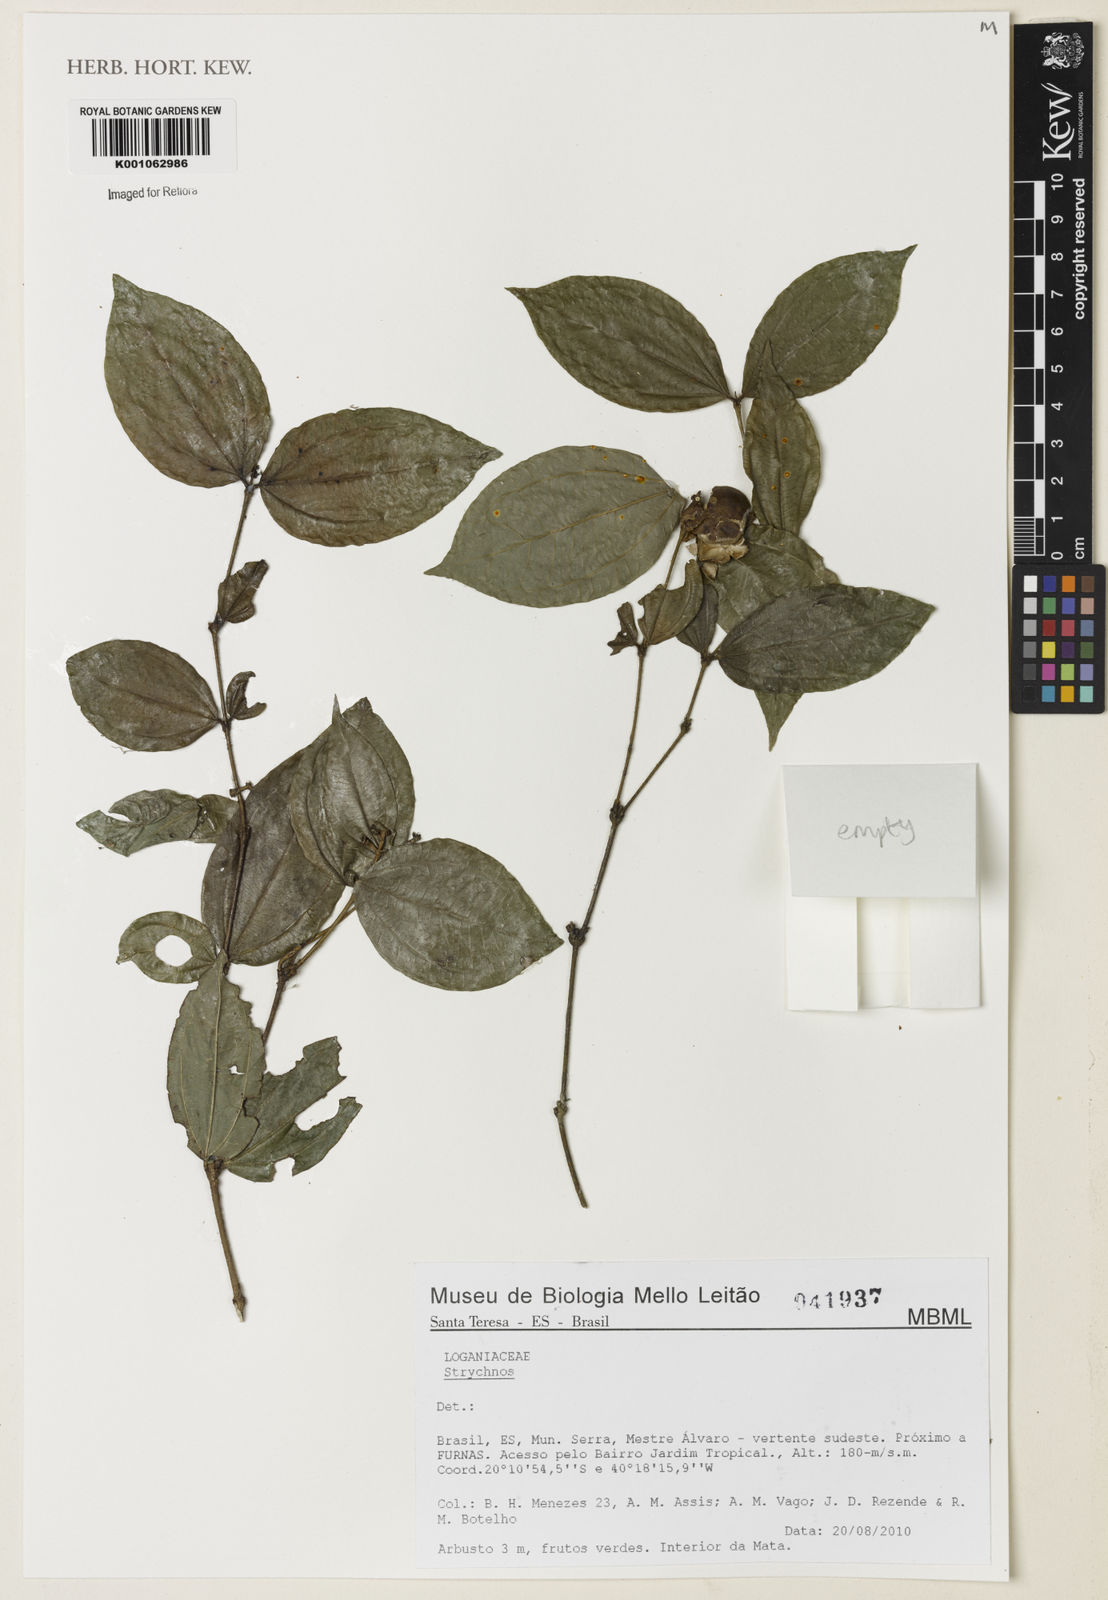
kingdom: Plantae
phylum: Tracheophyta
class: Magnoliopsida
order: Gentianales
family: Loganiaceae
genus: Strychnos
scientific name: Strychnos
